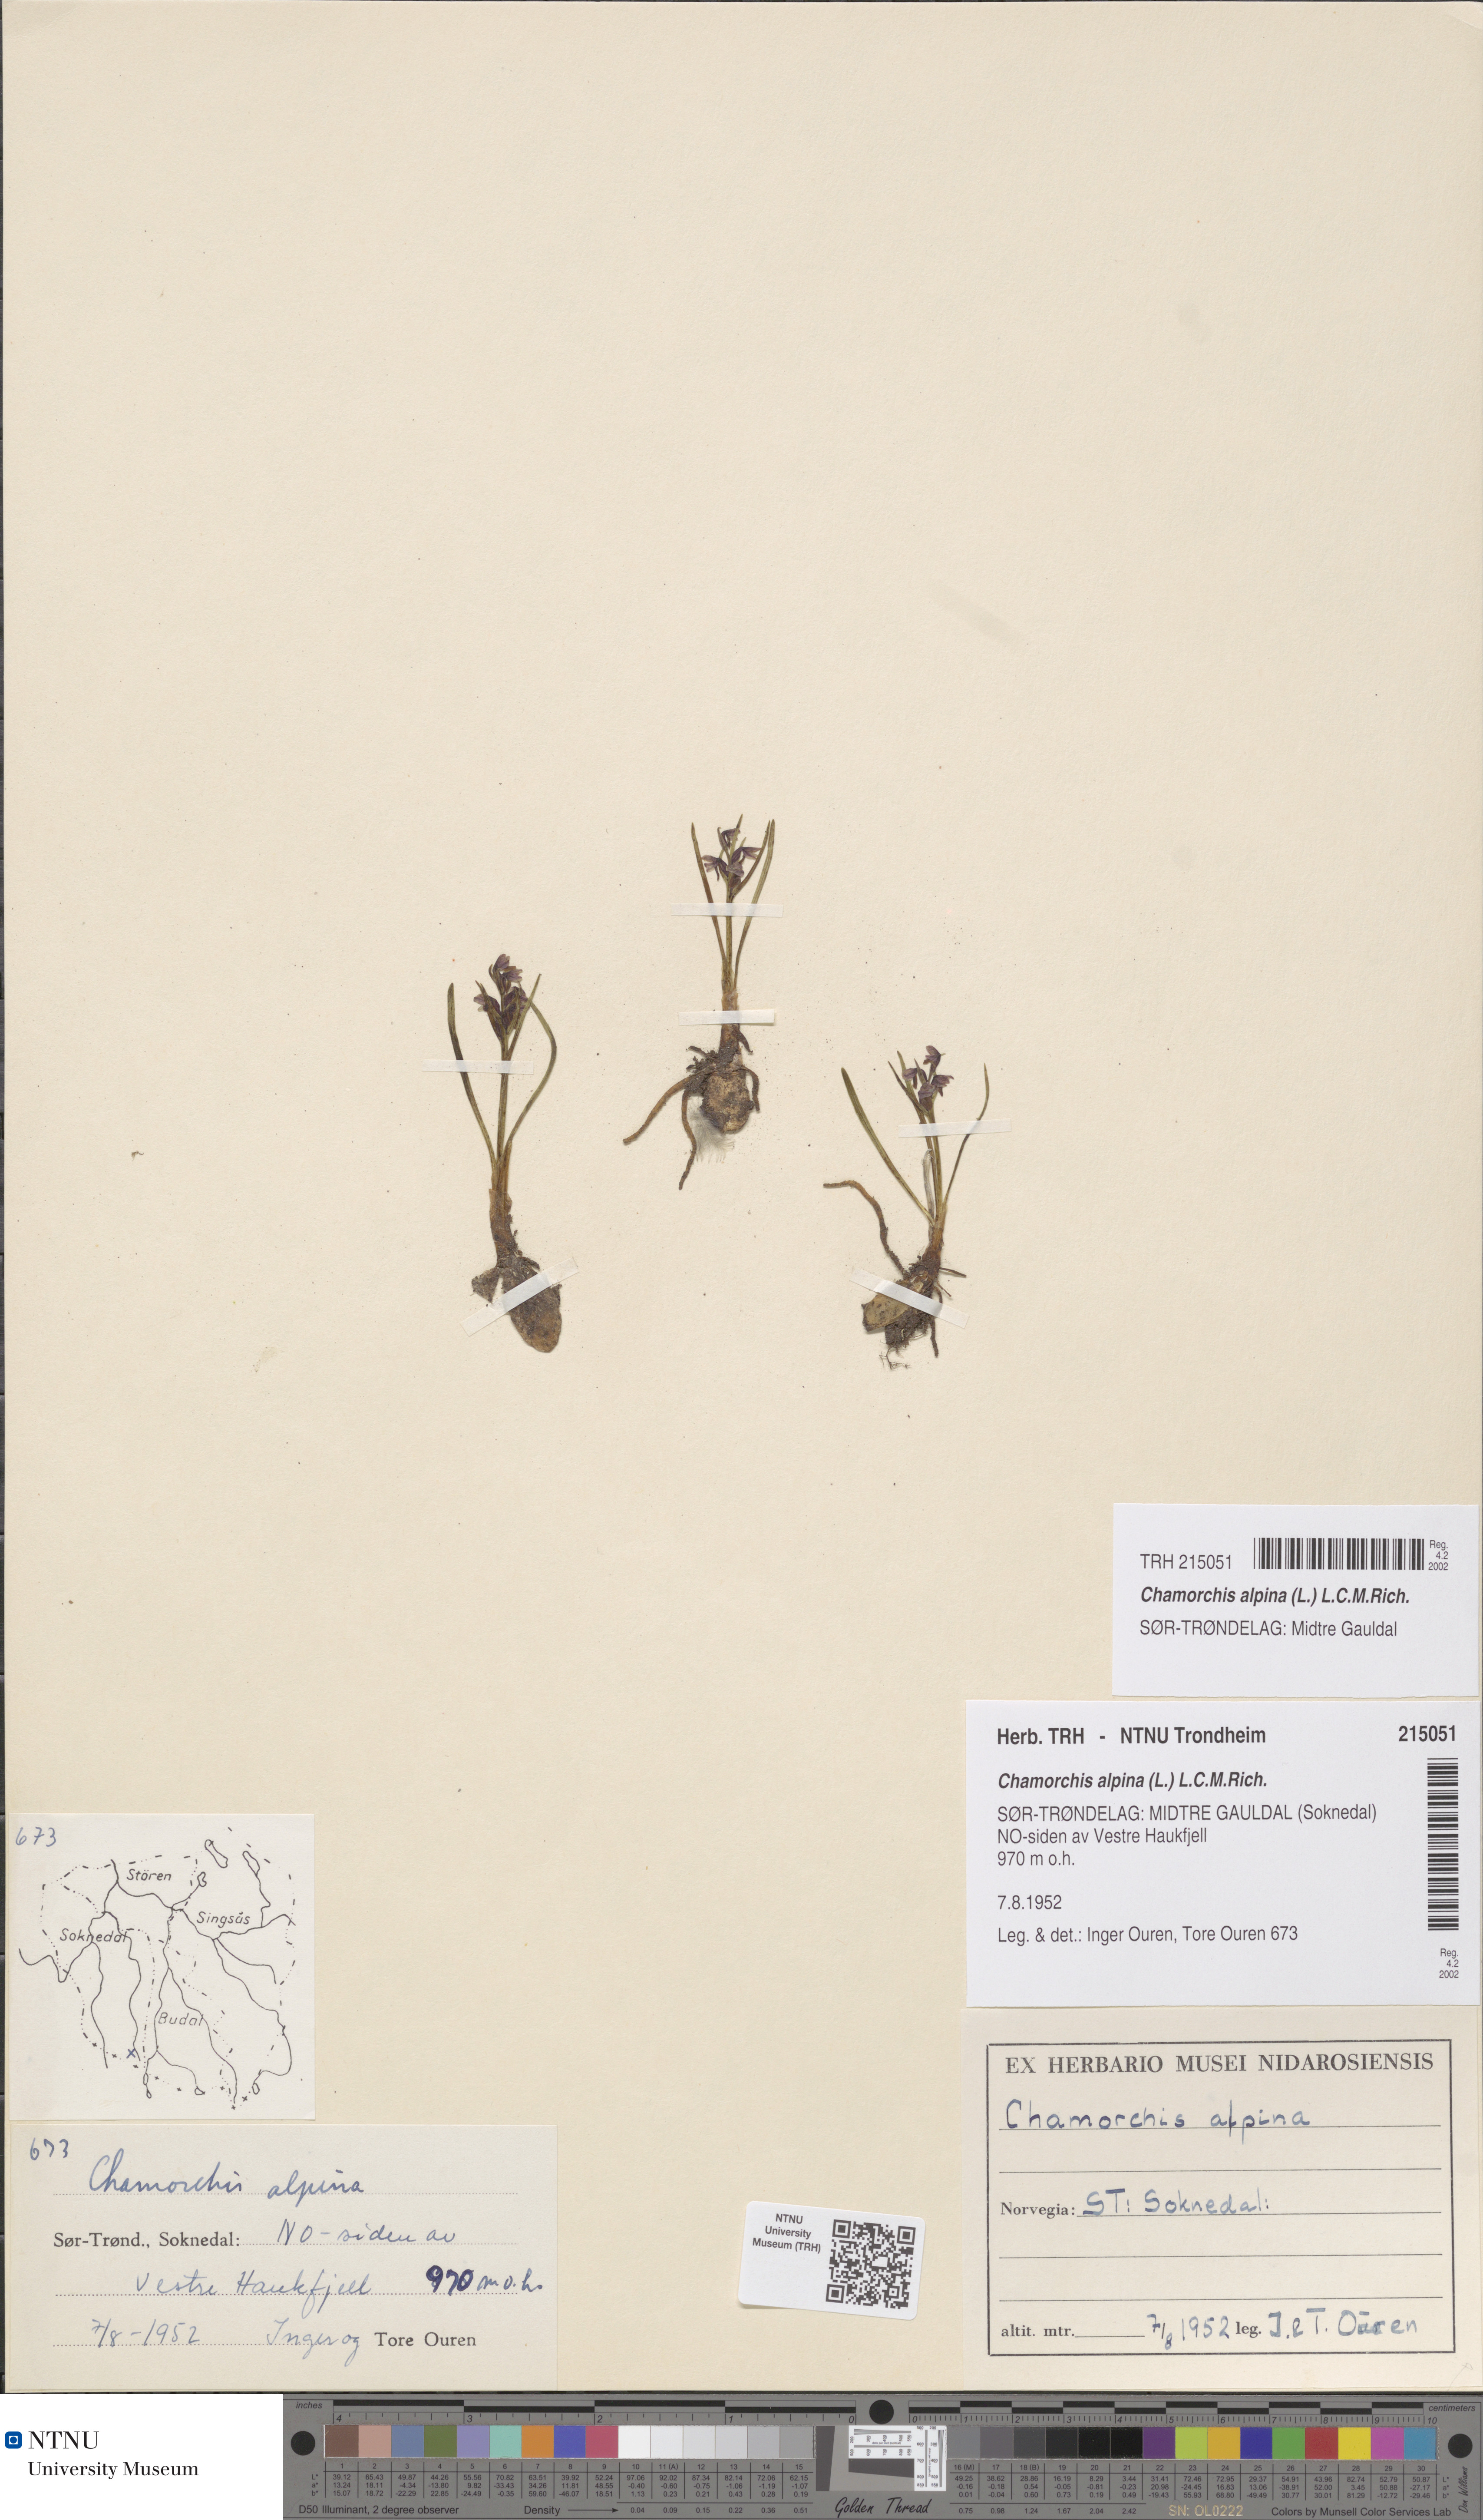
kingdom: Plantae
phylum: Tracheophyta
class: Liliopsida
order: Asparagales
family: Orchidaceae
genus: Chamorchis
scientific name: Chamorchis alpina
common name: Alpine chamorchis
